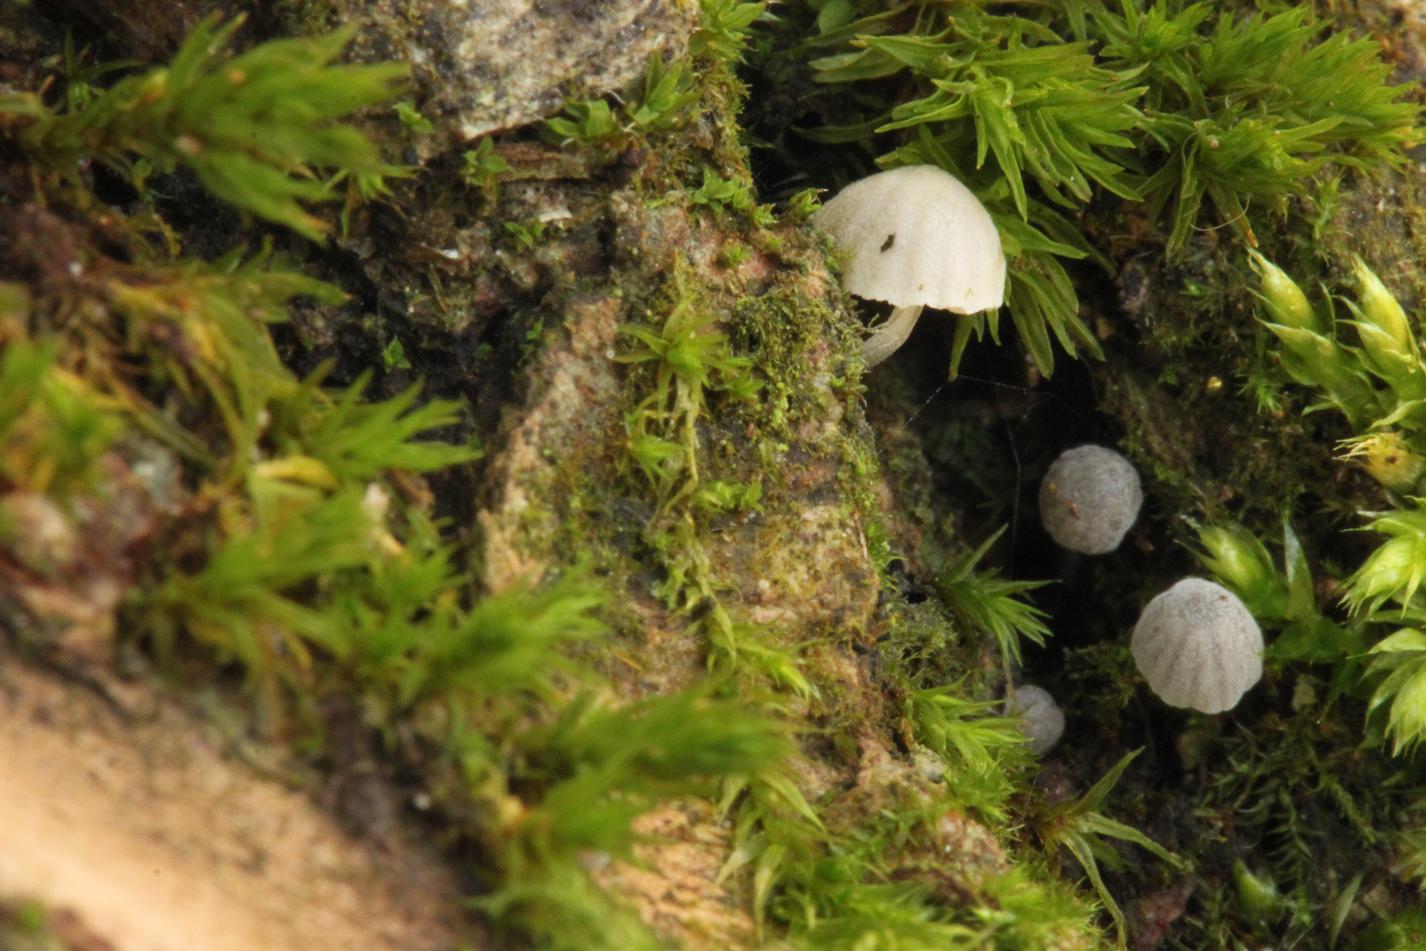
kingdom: Fungi
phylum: Basidiomycota
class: Agaricomycetes
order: Agaricales
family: Mycenaceae
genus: Mycena
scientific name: Mycena clavularis
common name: dunskivet huesvamp
